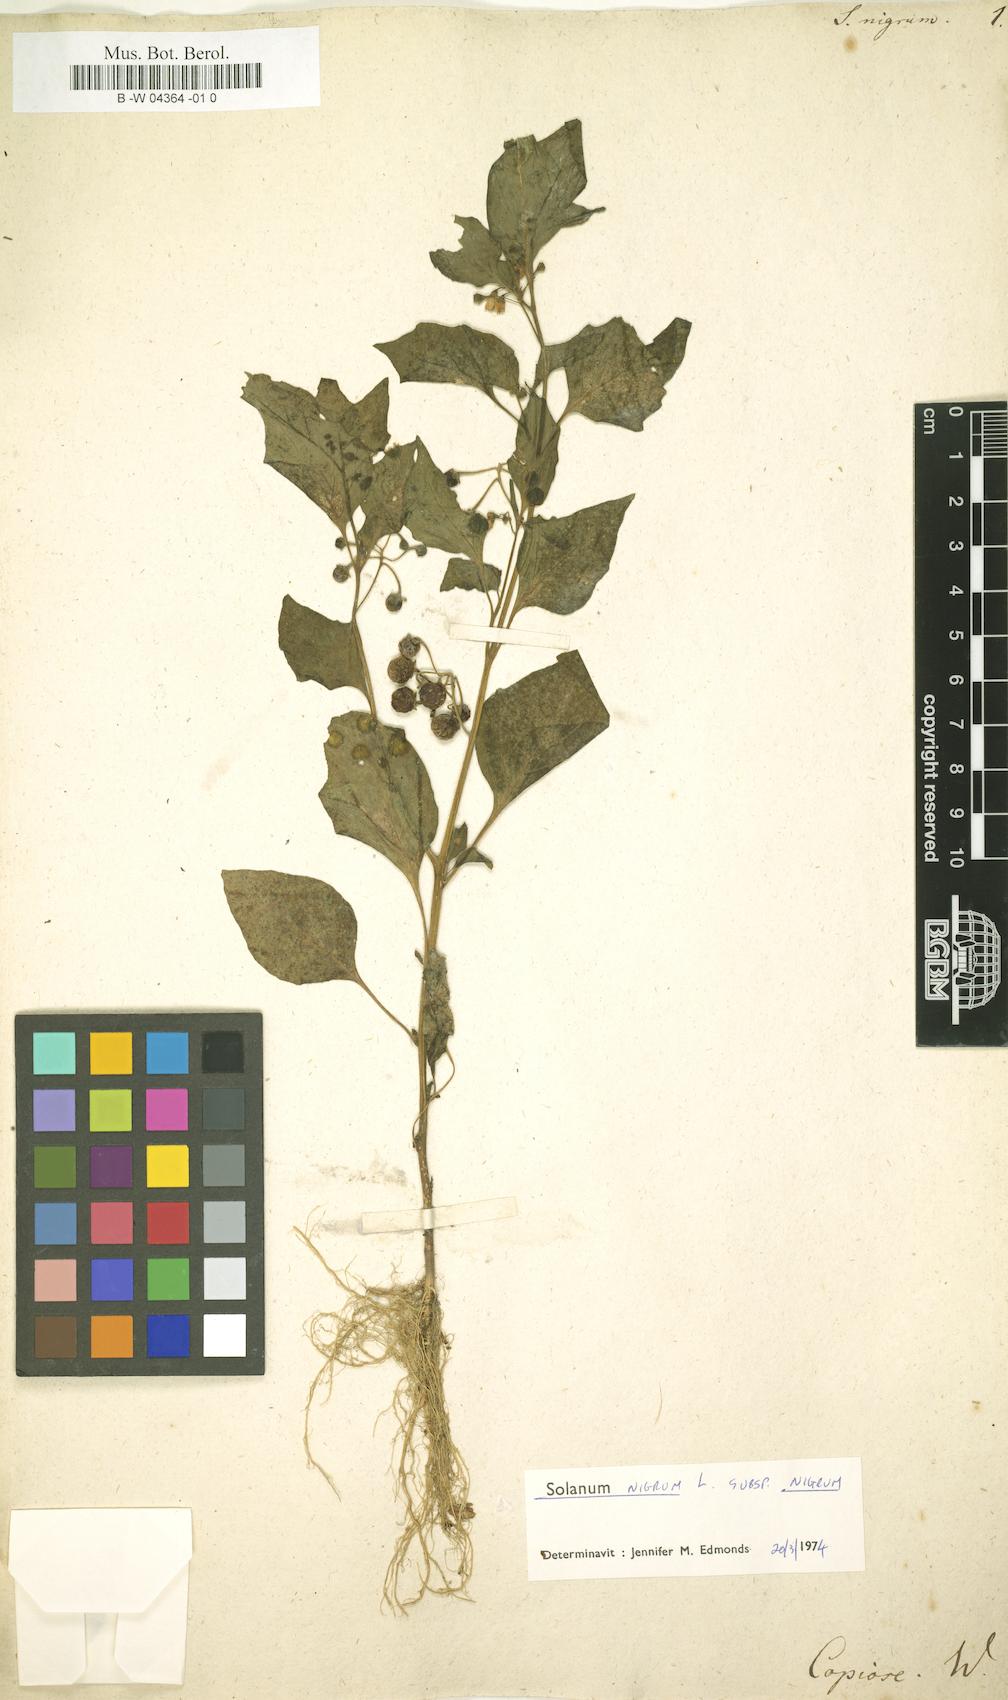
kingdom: Plantae
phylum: Tracheophyta
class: Magnoliopsida
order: Solanales
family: Solanaceae
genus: Solanum
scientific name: Solanum nigrum
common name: Black nightshade
